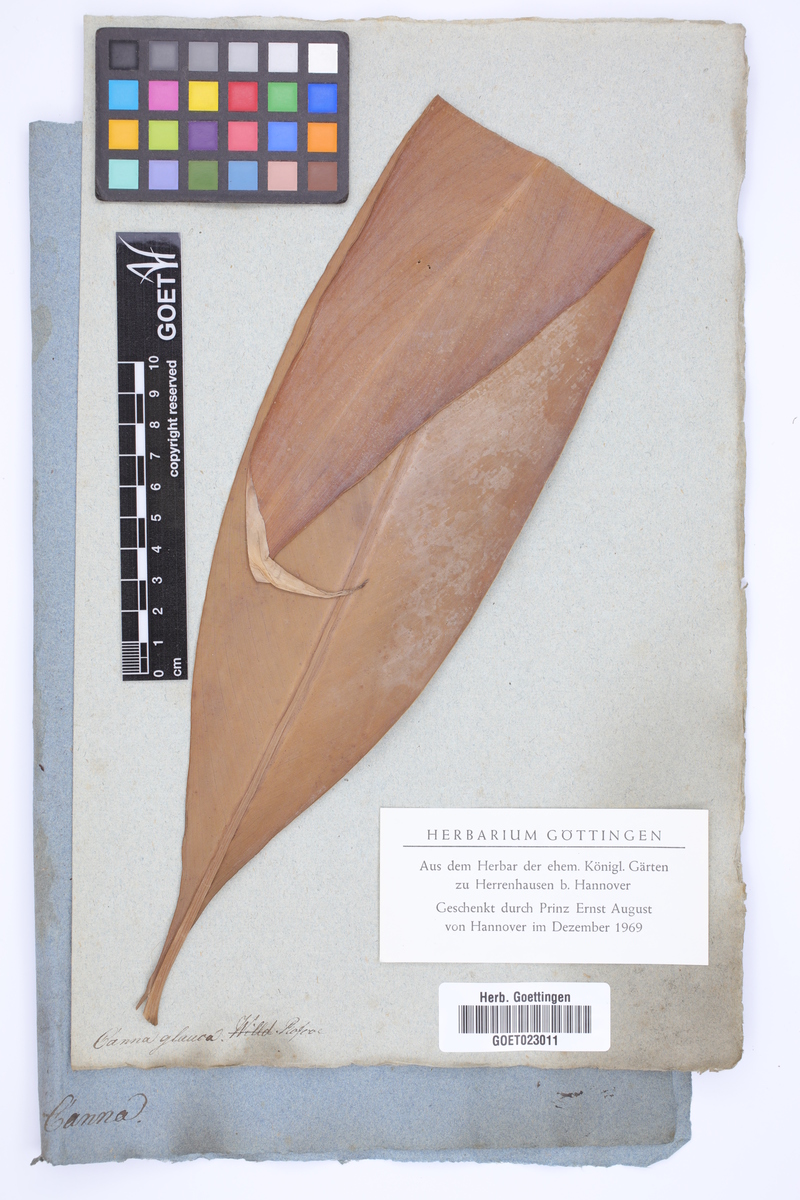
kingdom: Plantae
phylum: Tracheophyta
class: Liliopsida
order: Zingiberales
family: Cannaceae
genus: Canna
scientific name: Canna glauca
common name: Louisiana canna
